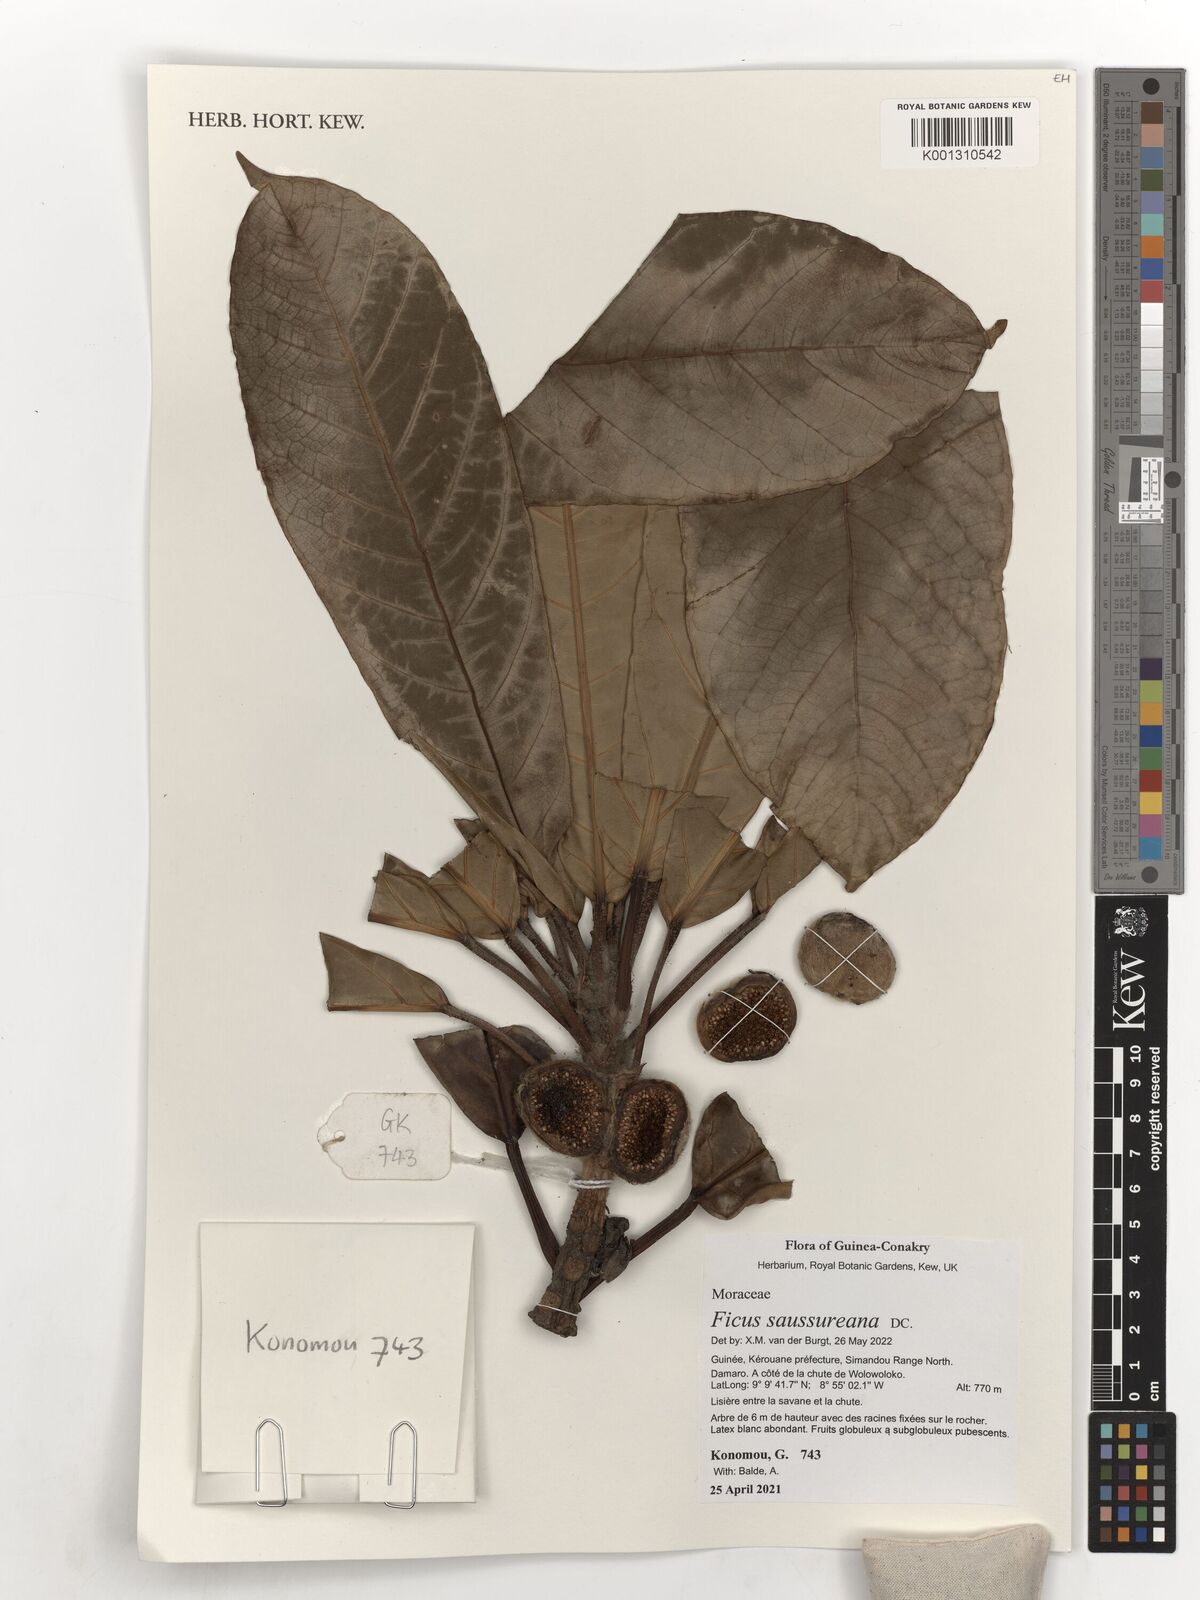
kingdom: Plantae
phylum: Tracheophyta
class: Magnoliopsida
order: Rosales
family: Moraceae
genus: Ficus
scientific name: Ficus saussureana
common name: Loquat-leaf fig
